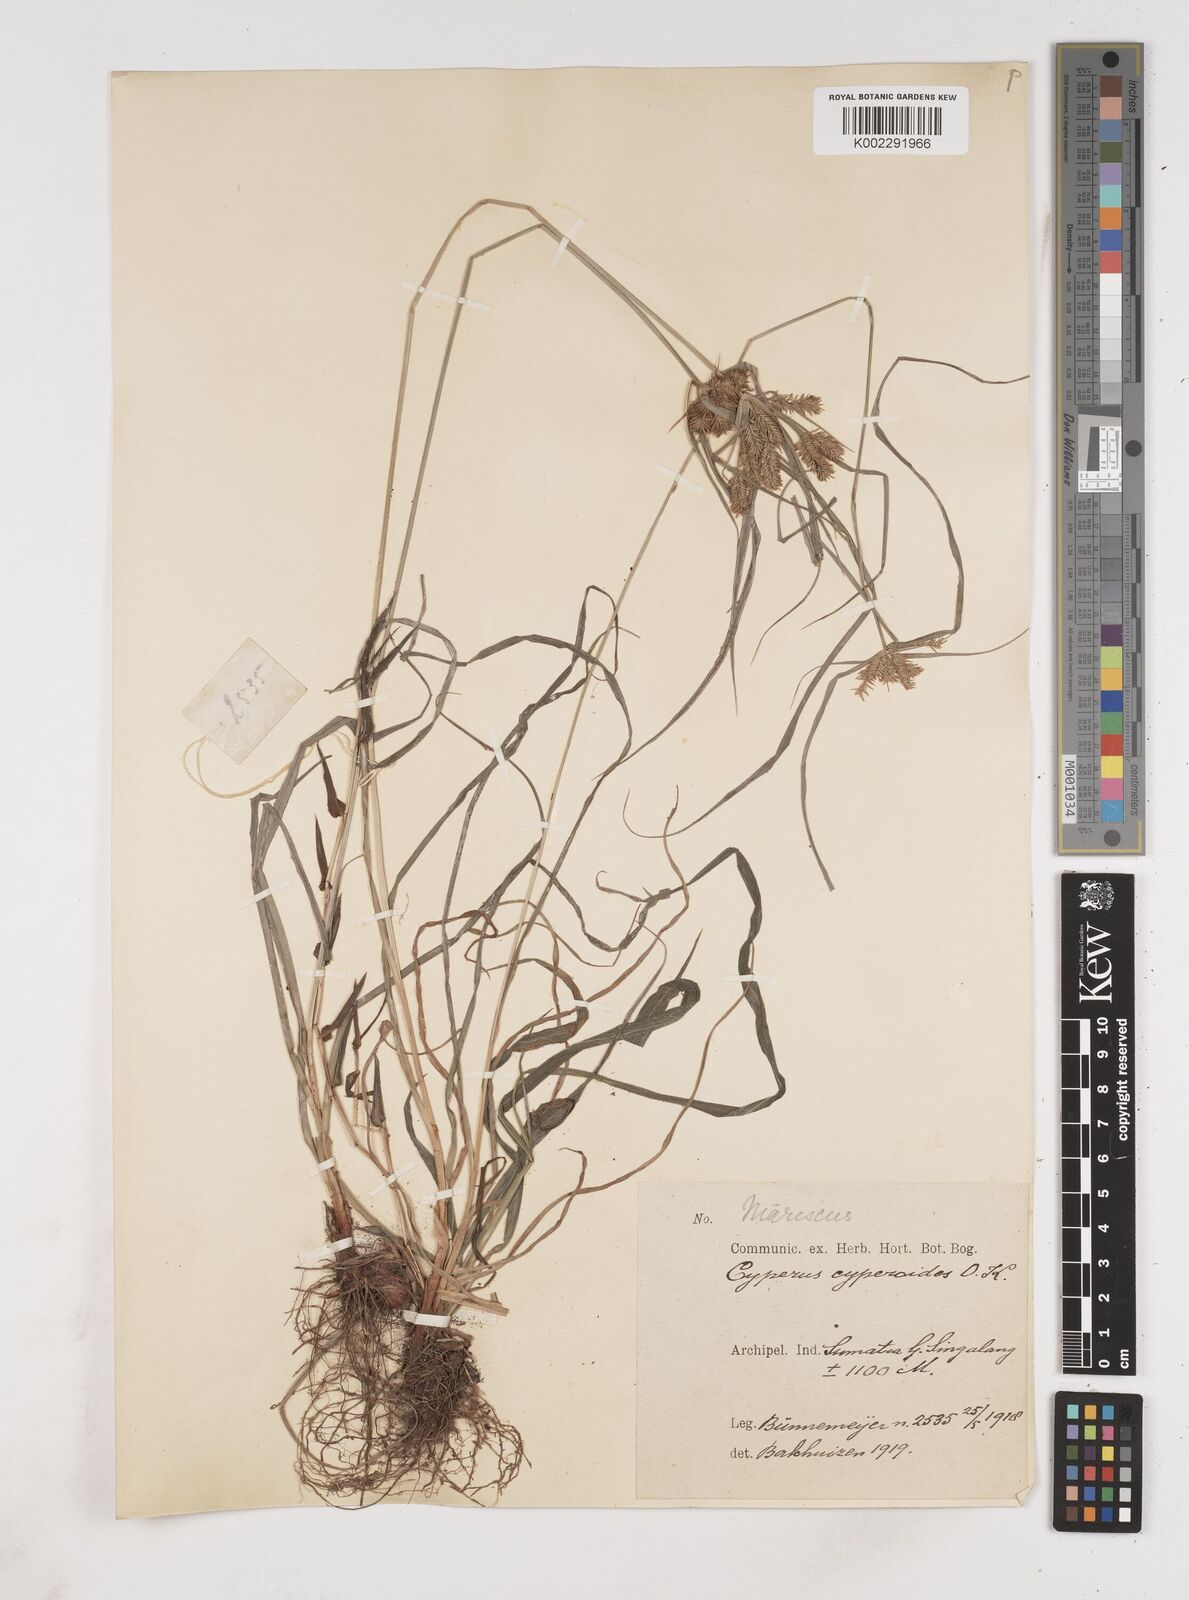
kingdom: Plantae
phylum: Tracheophyta
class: Liliopsida
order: Poales
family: Cyperaceae
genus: Cyperus
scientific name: Cyperus cyperoides
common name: Pacific island flat sedge
